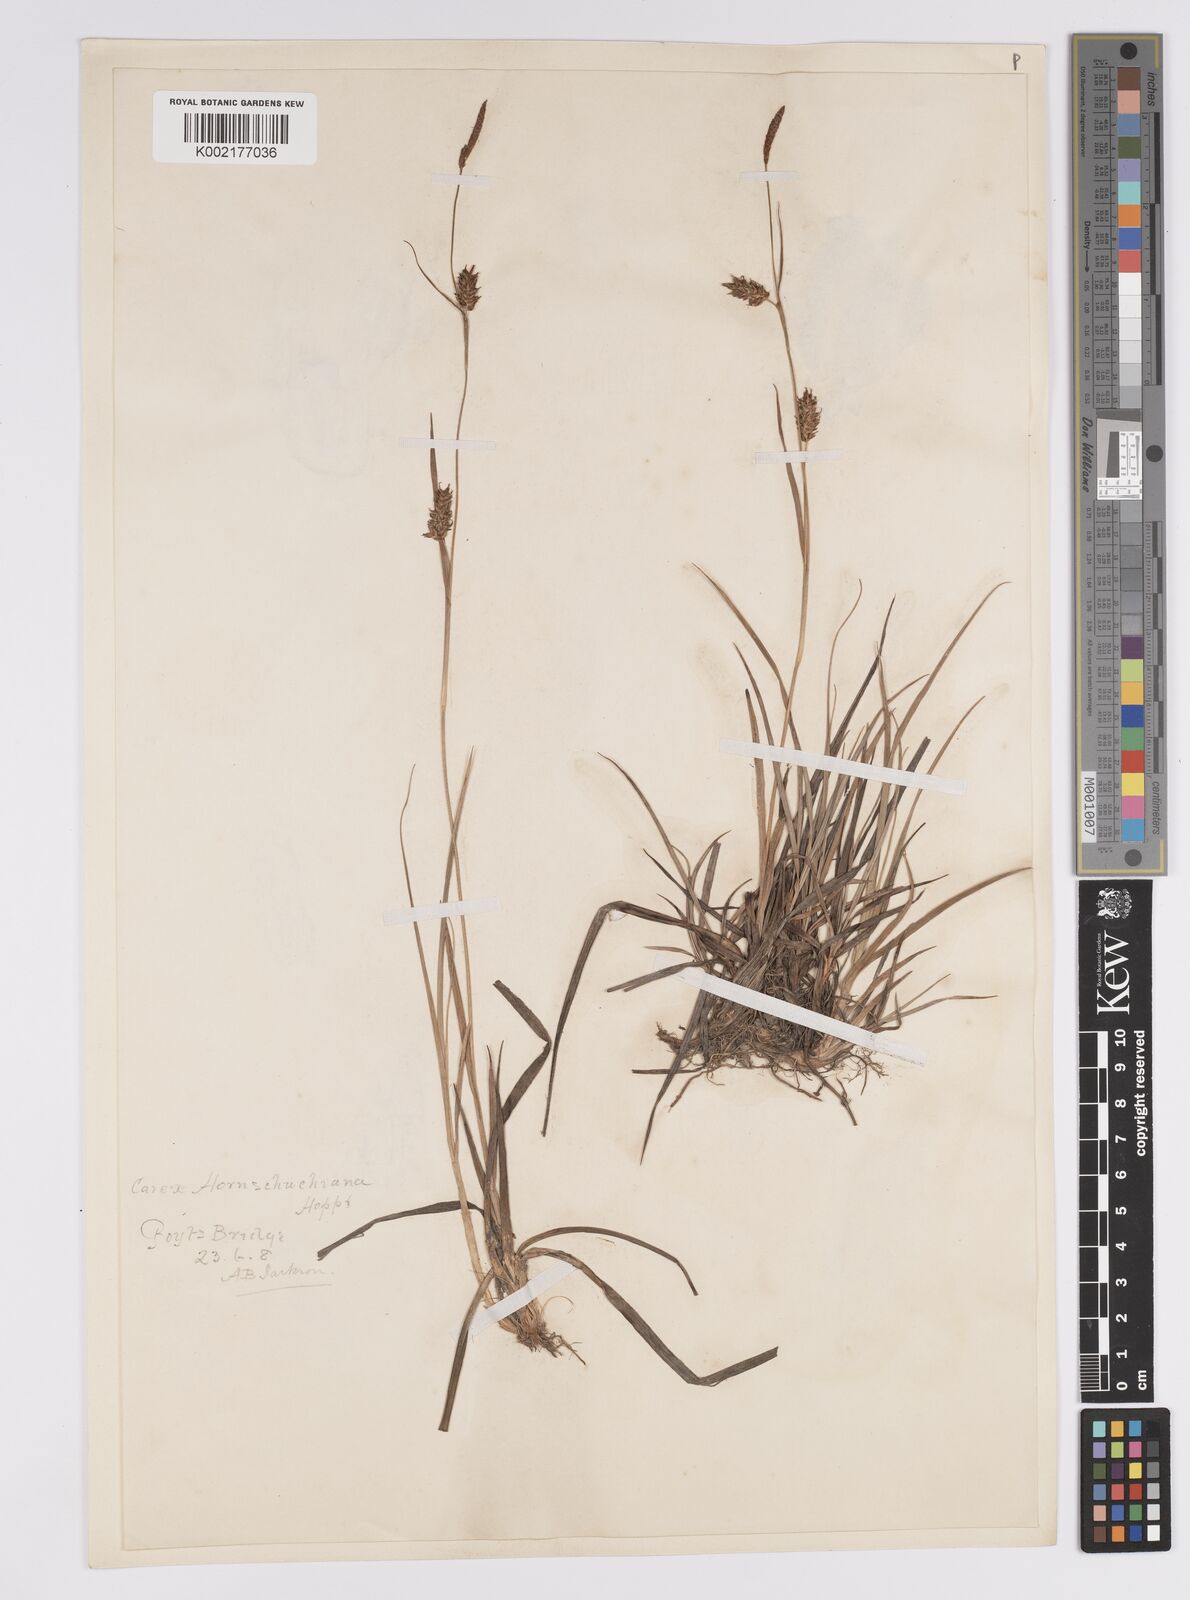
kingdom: Plantae
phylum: Tracheophyta
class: Liliopsida
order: Poales
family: Cyperaceae
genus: Carex
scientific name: Carex hostiana
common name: Tawny sedge
